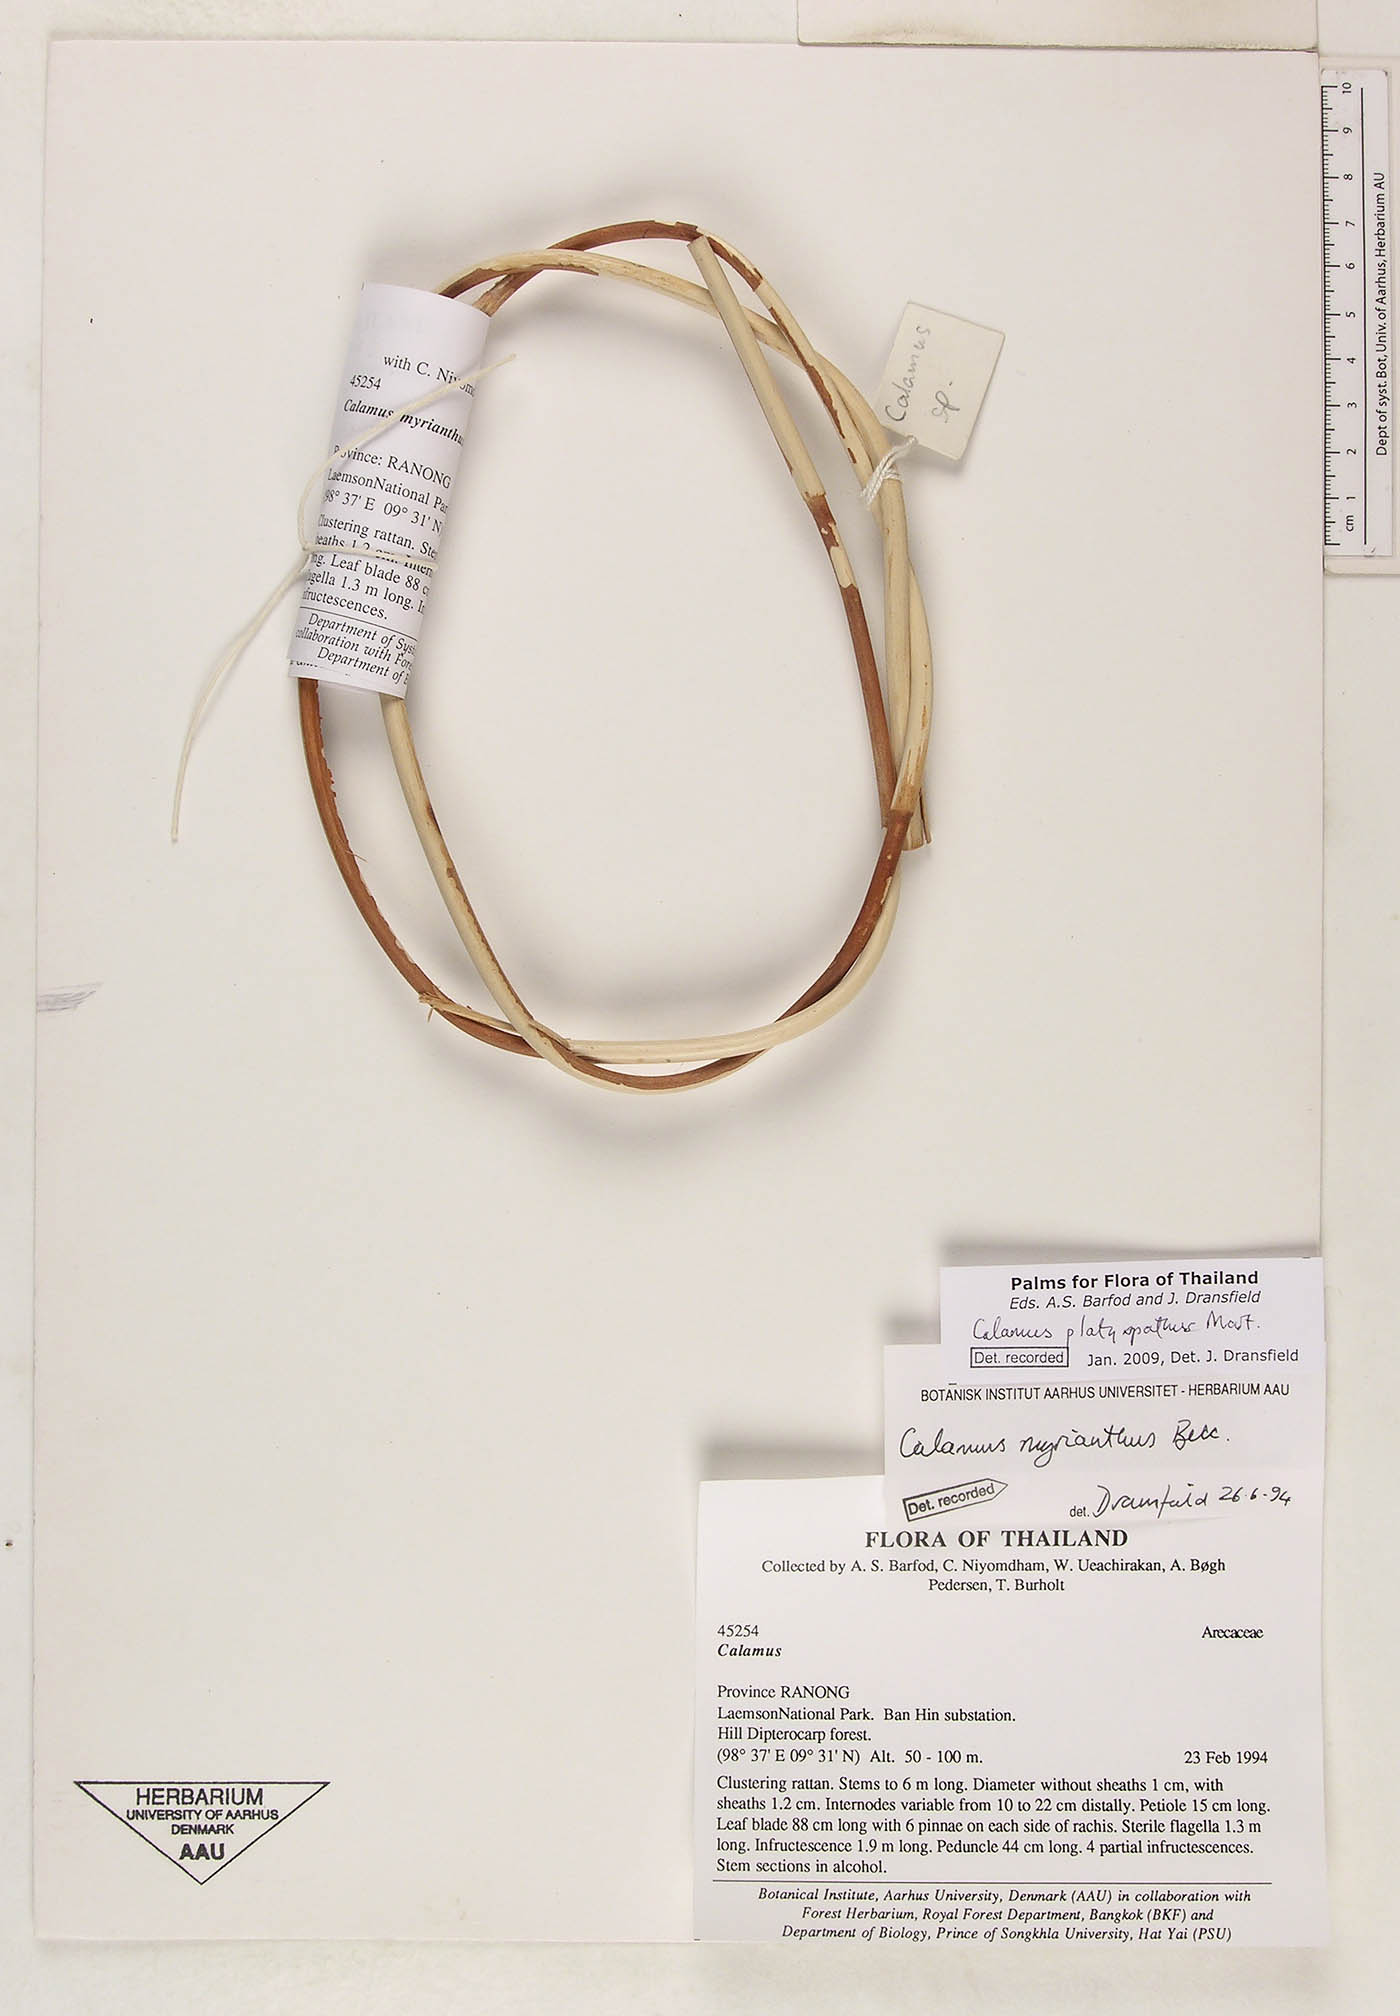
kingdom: Plantae
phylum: Tracheophyta
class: Liliopsida
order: Arecales
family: Arecaceae
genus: Calamus
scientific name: Calamus inermis
